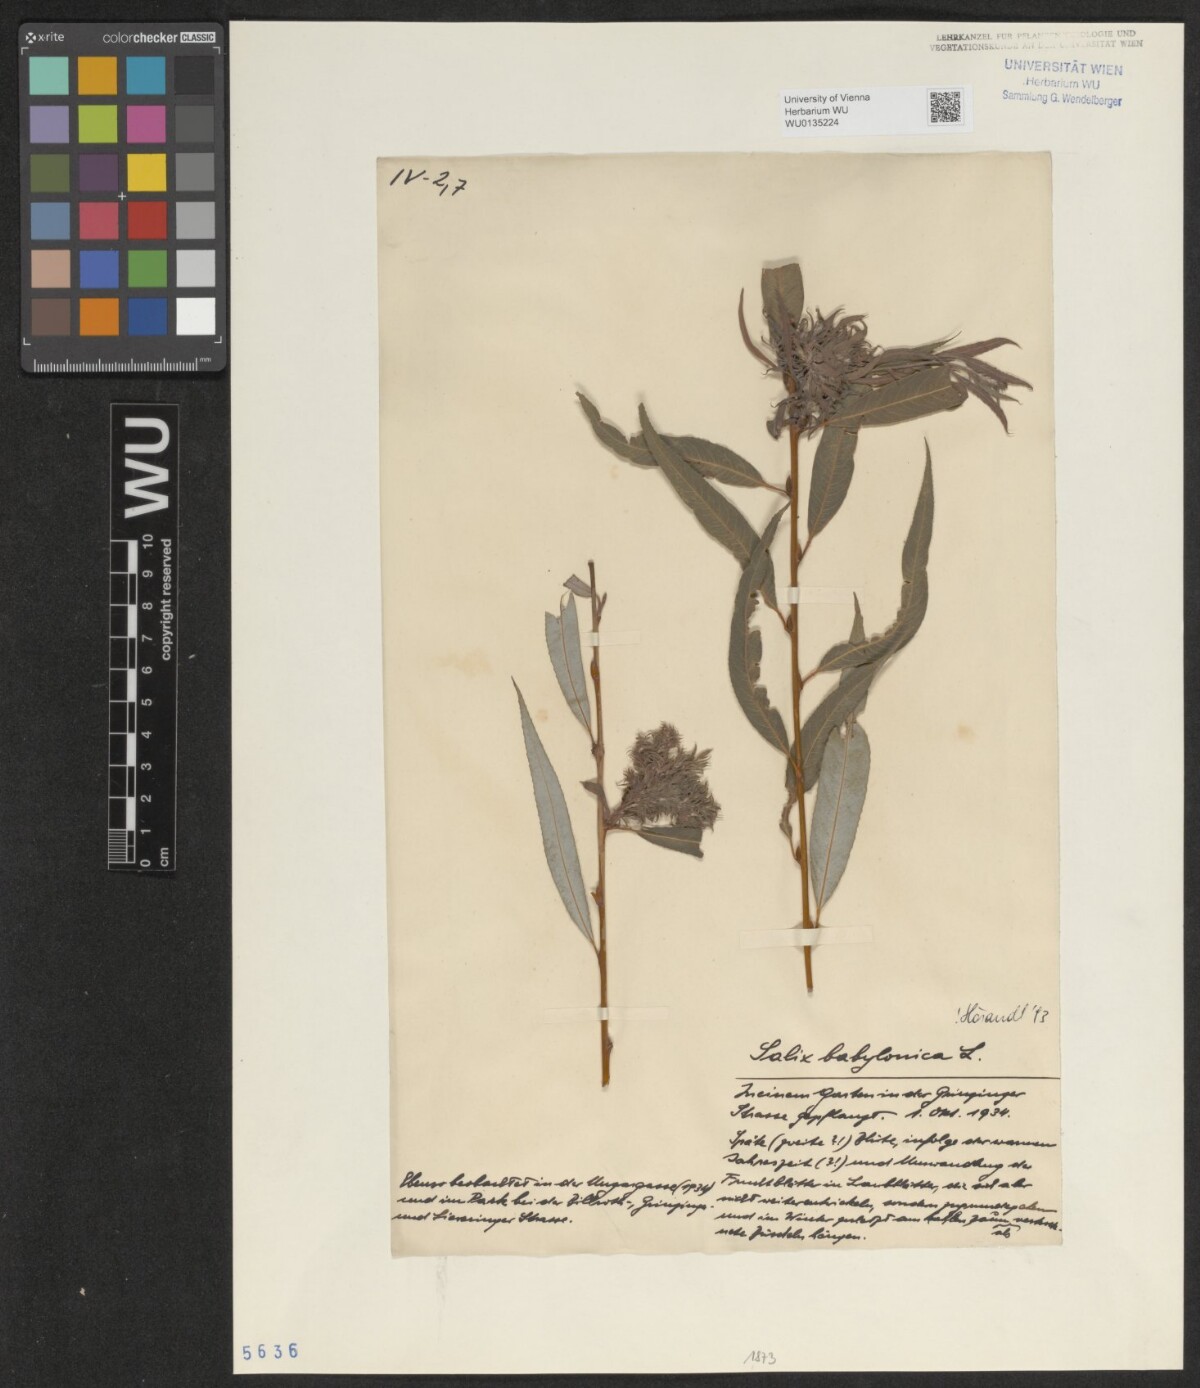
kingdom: Plantae
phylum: Tracheophyta
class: Magnoliopsida
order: Malpighiales
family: Salicaceae
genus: Salix
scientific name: Salix babylonica
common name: Weeping willow
